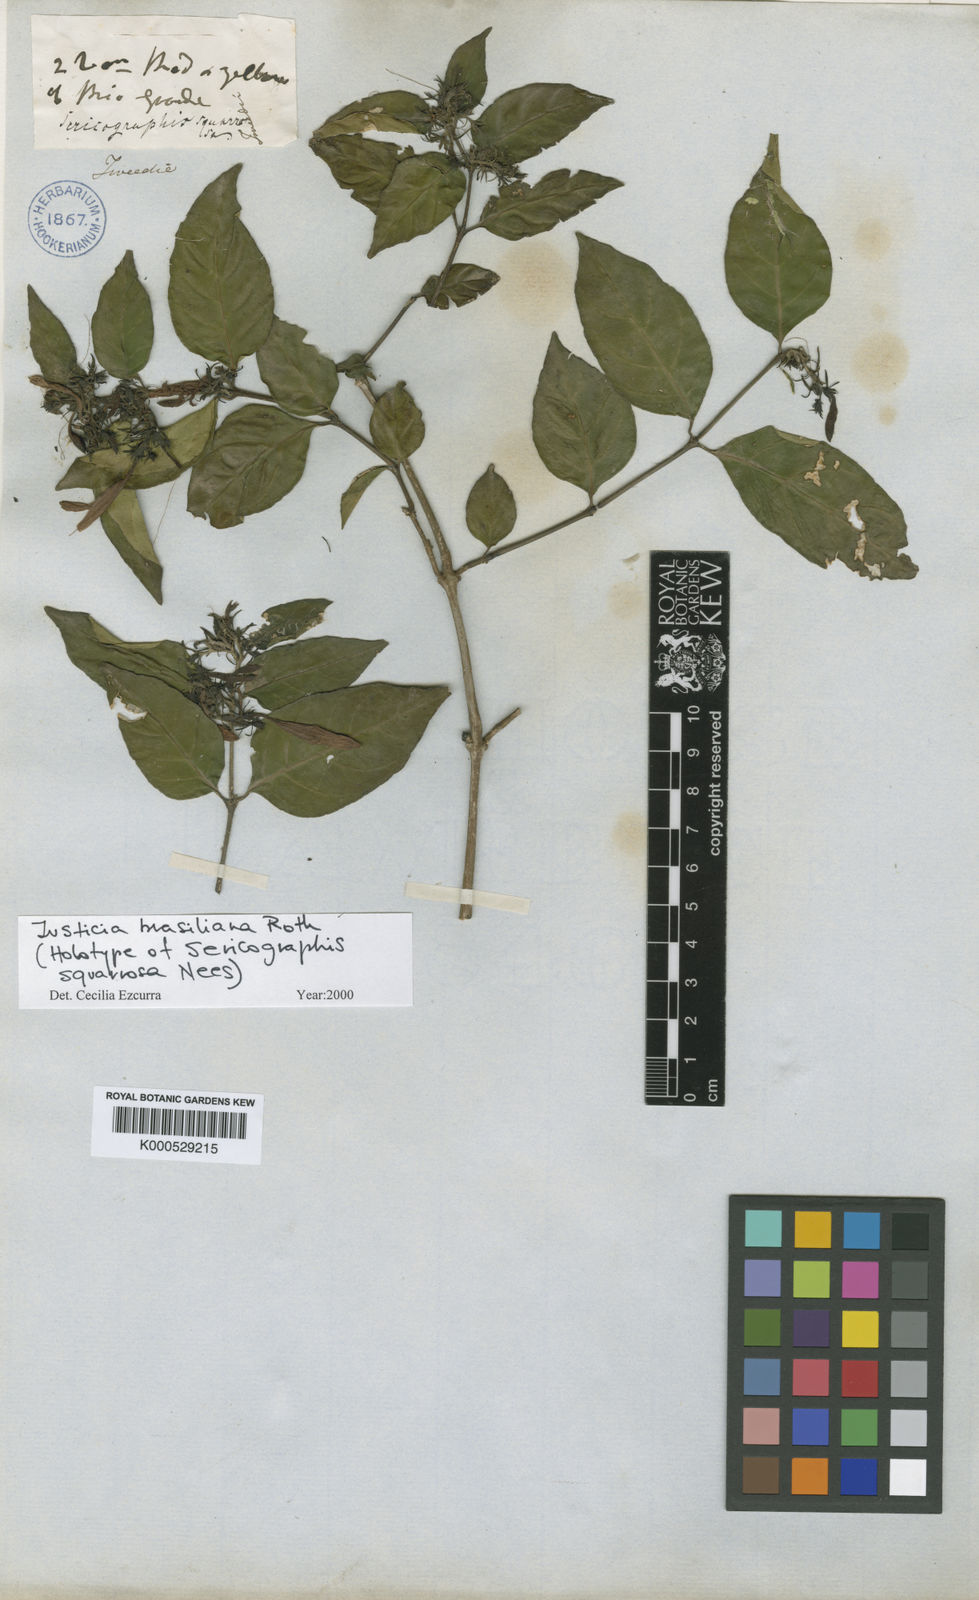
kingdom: Plantae
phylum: Tracheophyta
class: Magnoliopsida
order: Lamiales
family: Acanthaceae
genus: Justicia
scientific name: Justicia brasiliana
